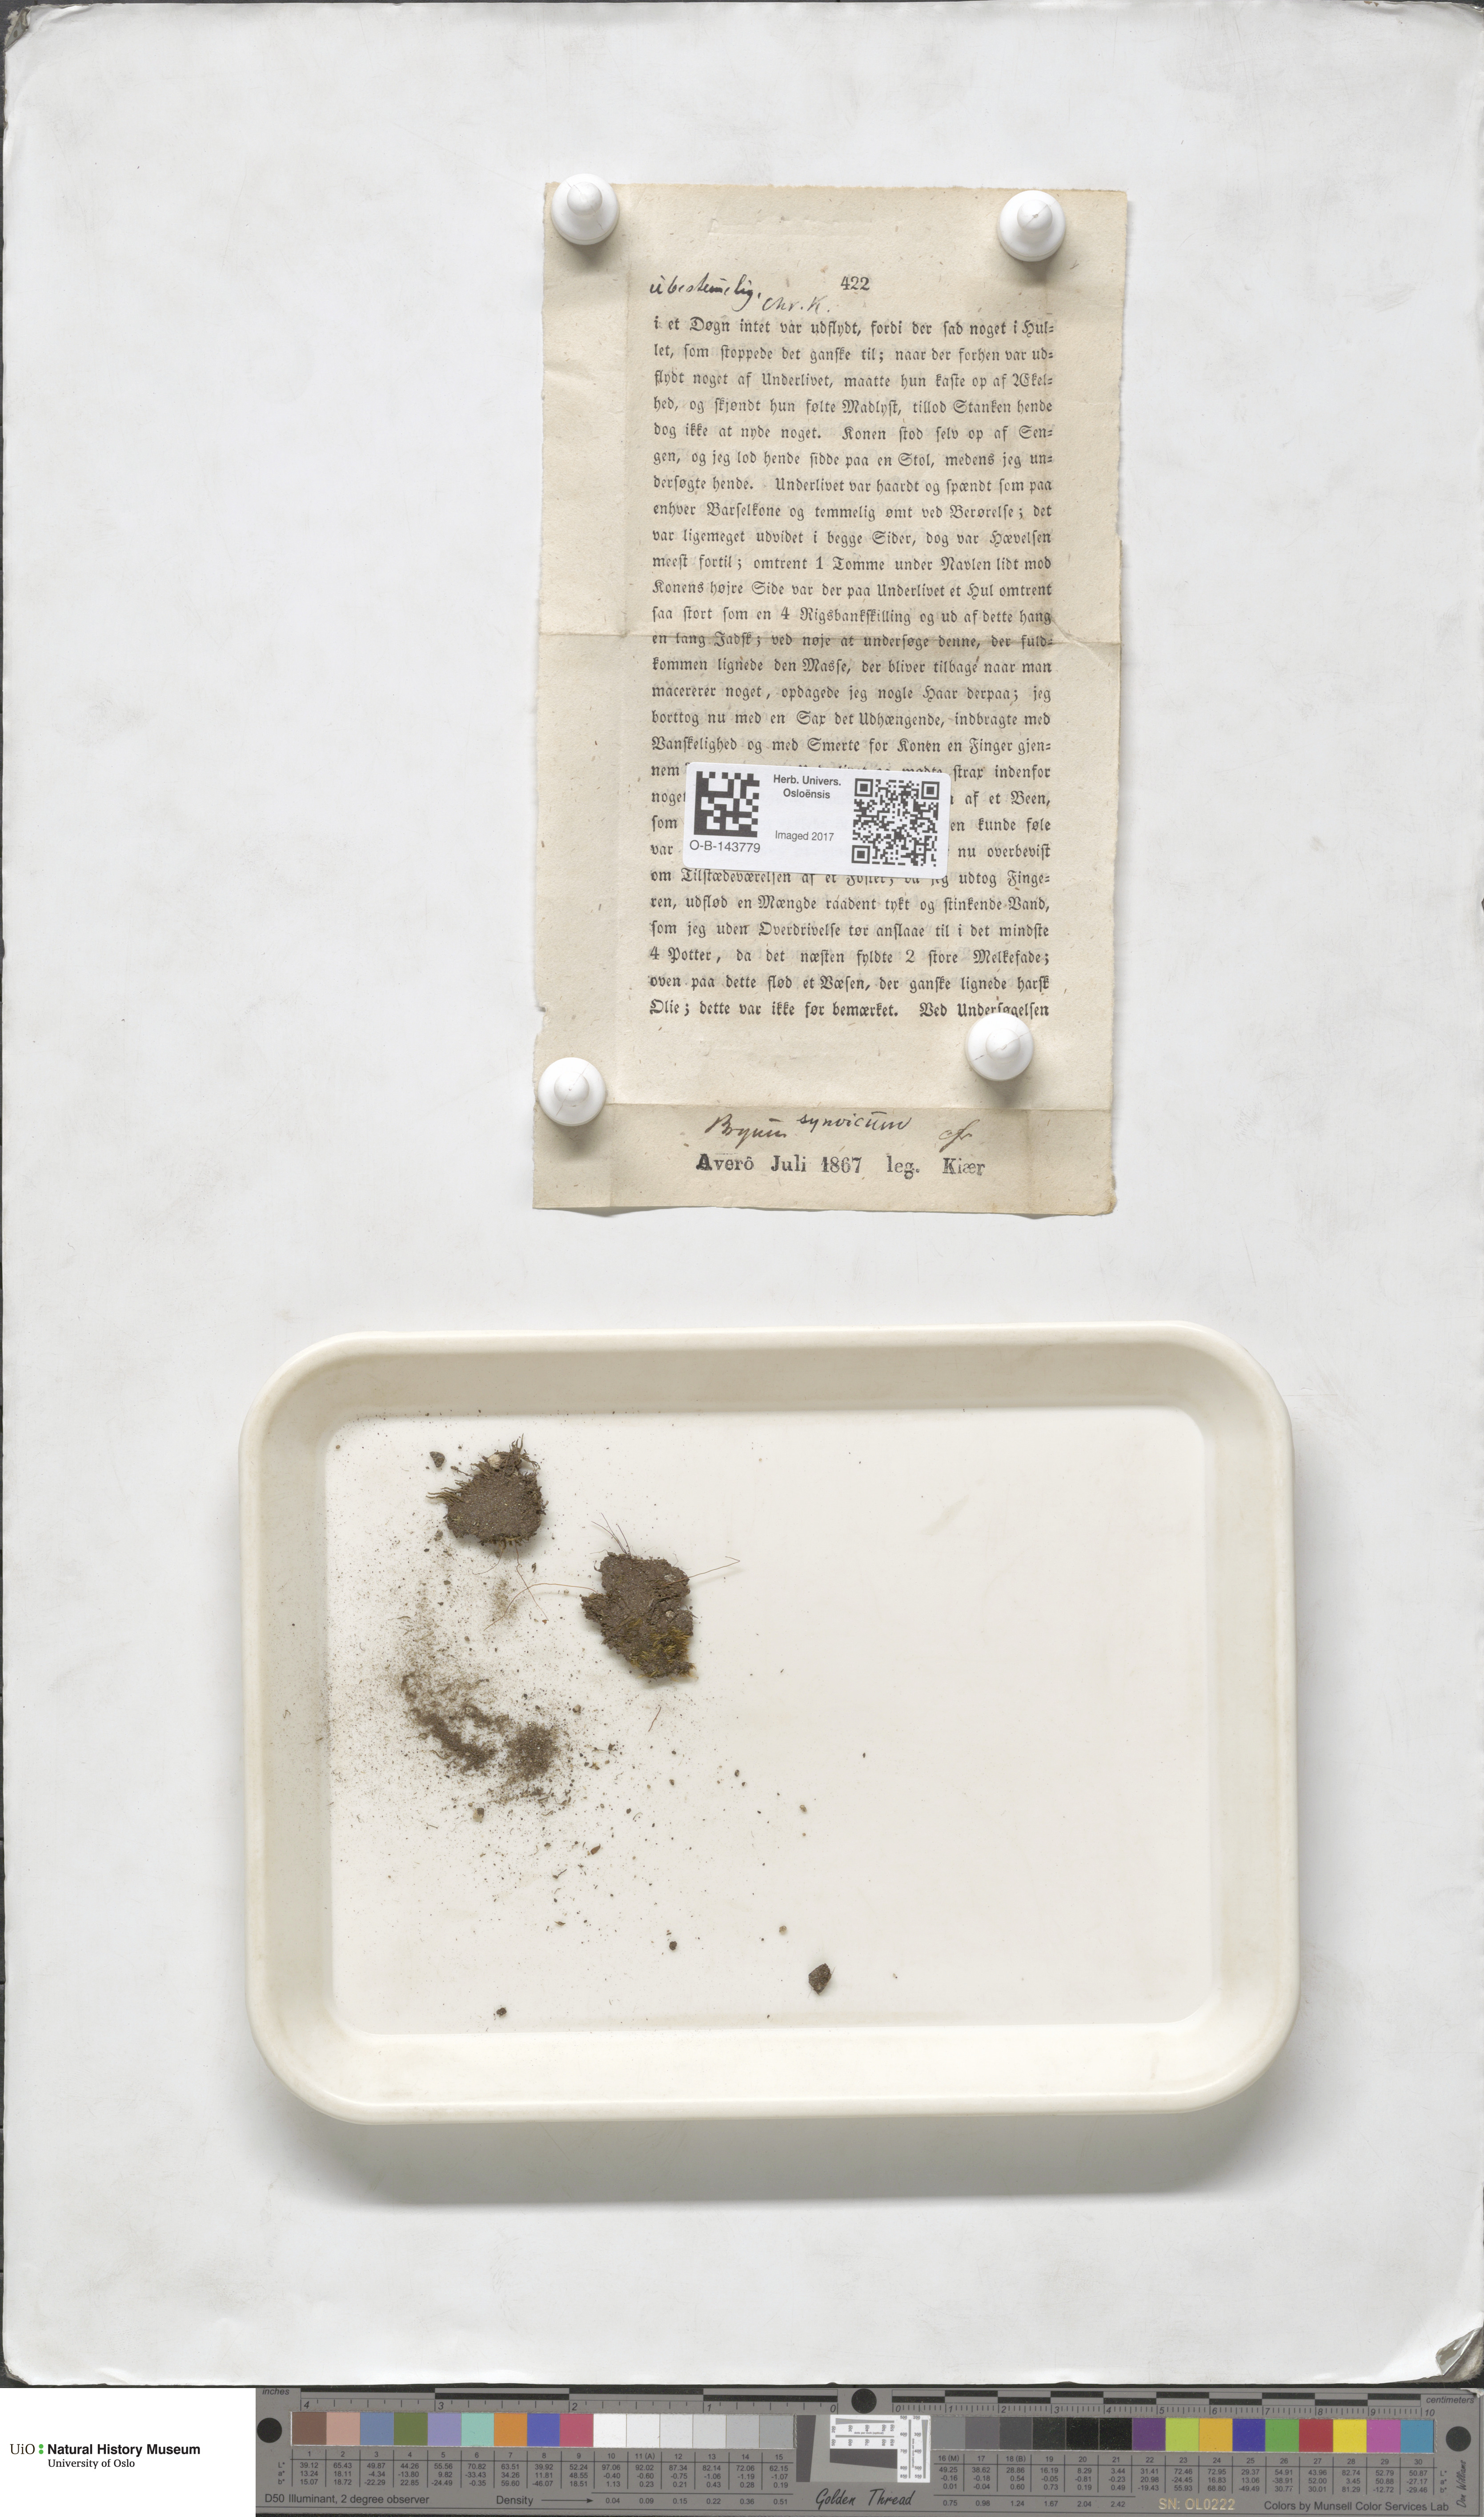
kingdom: Plantae
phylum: Bryophyta
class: Bryopsida
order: Bryales
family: Bryaceae
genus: Bryum
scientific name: Bryum
